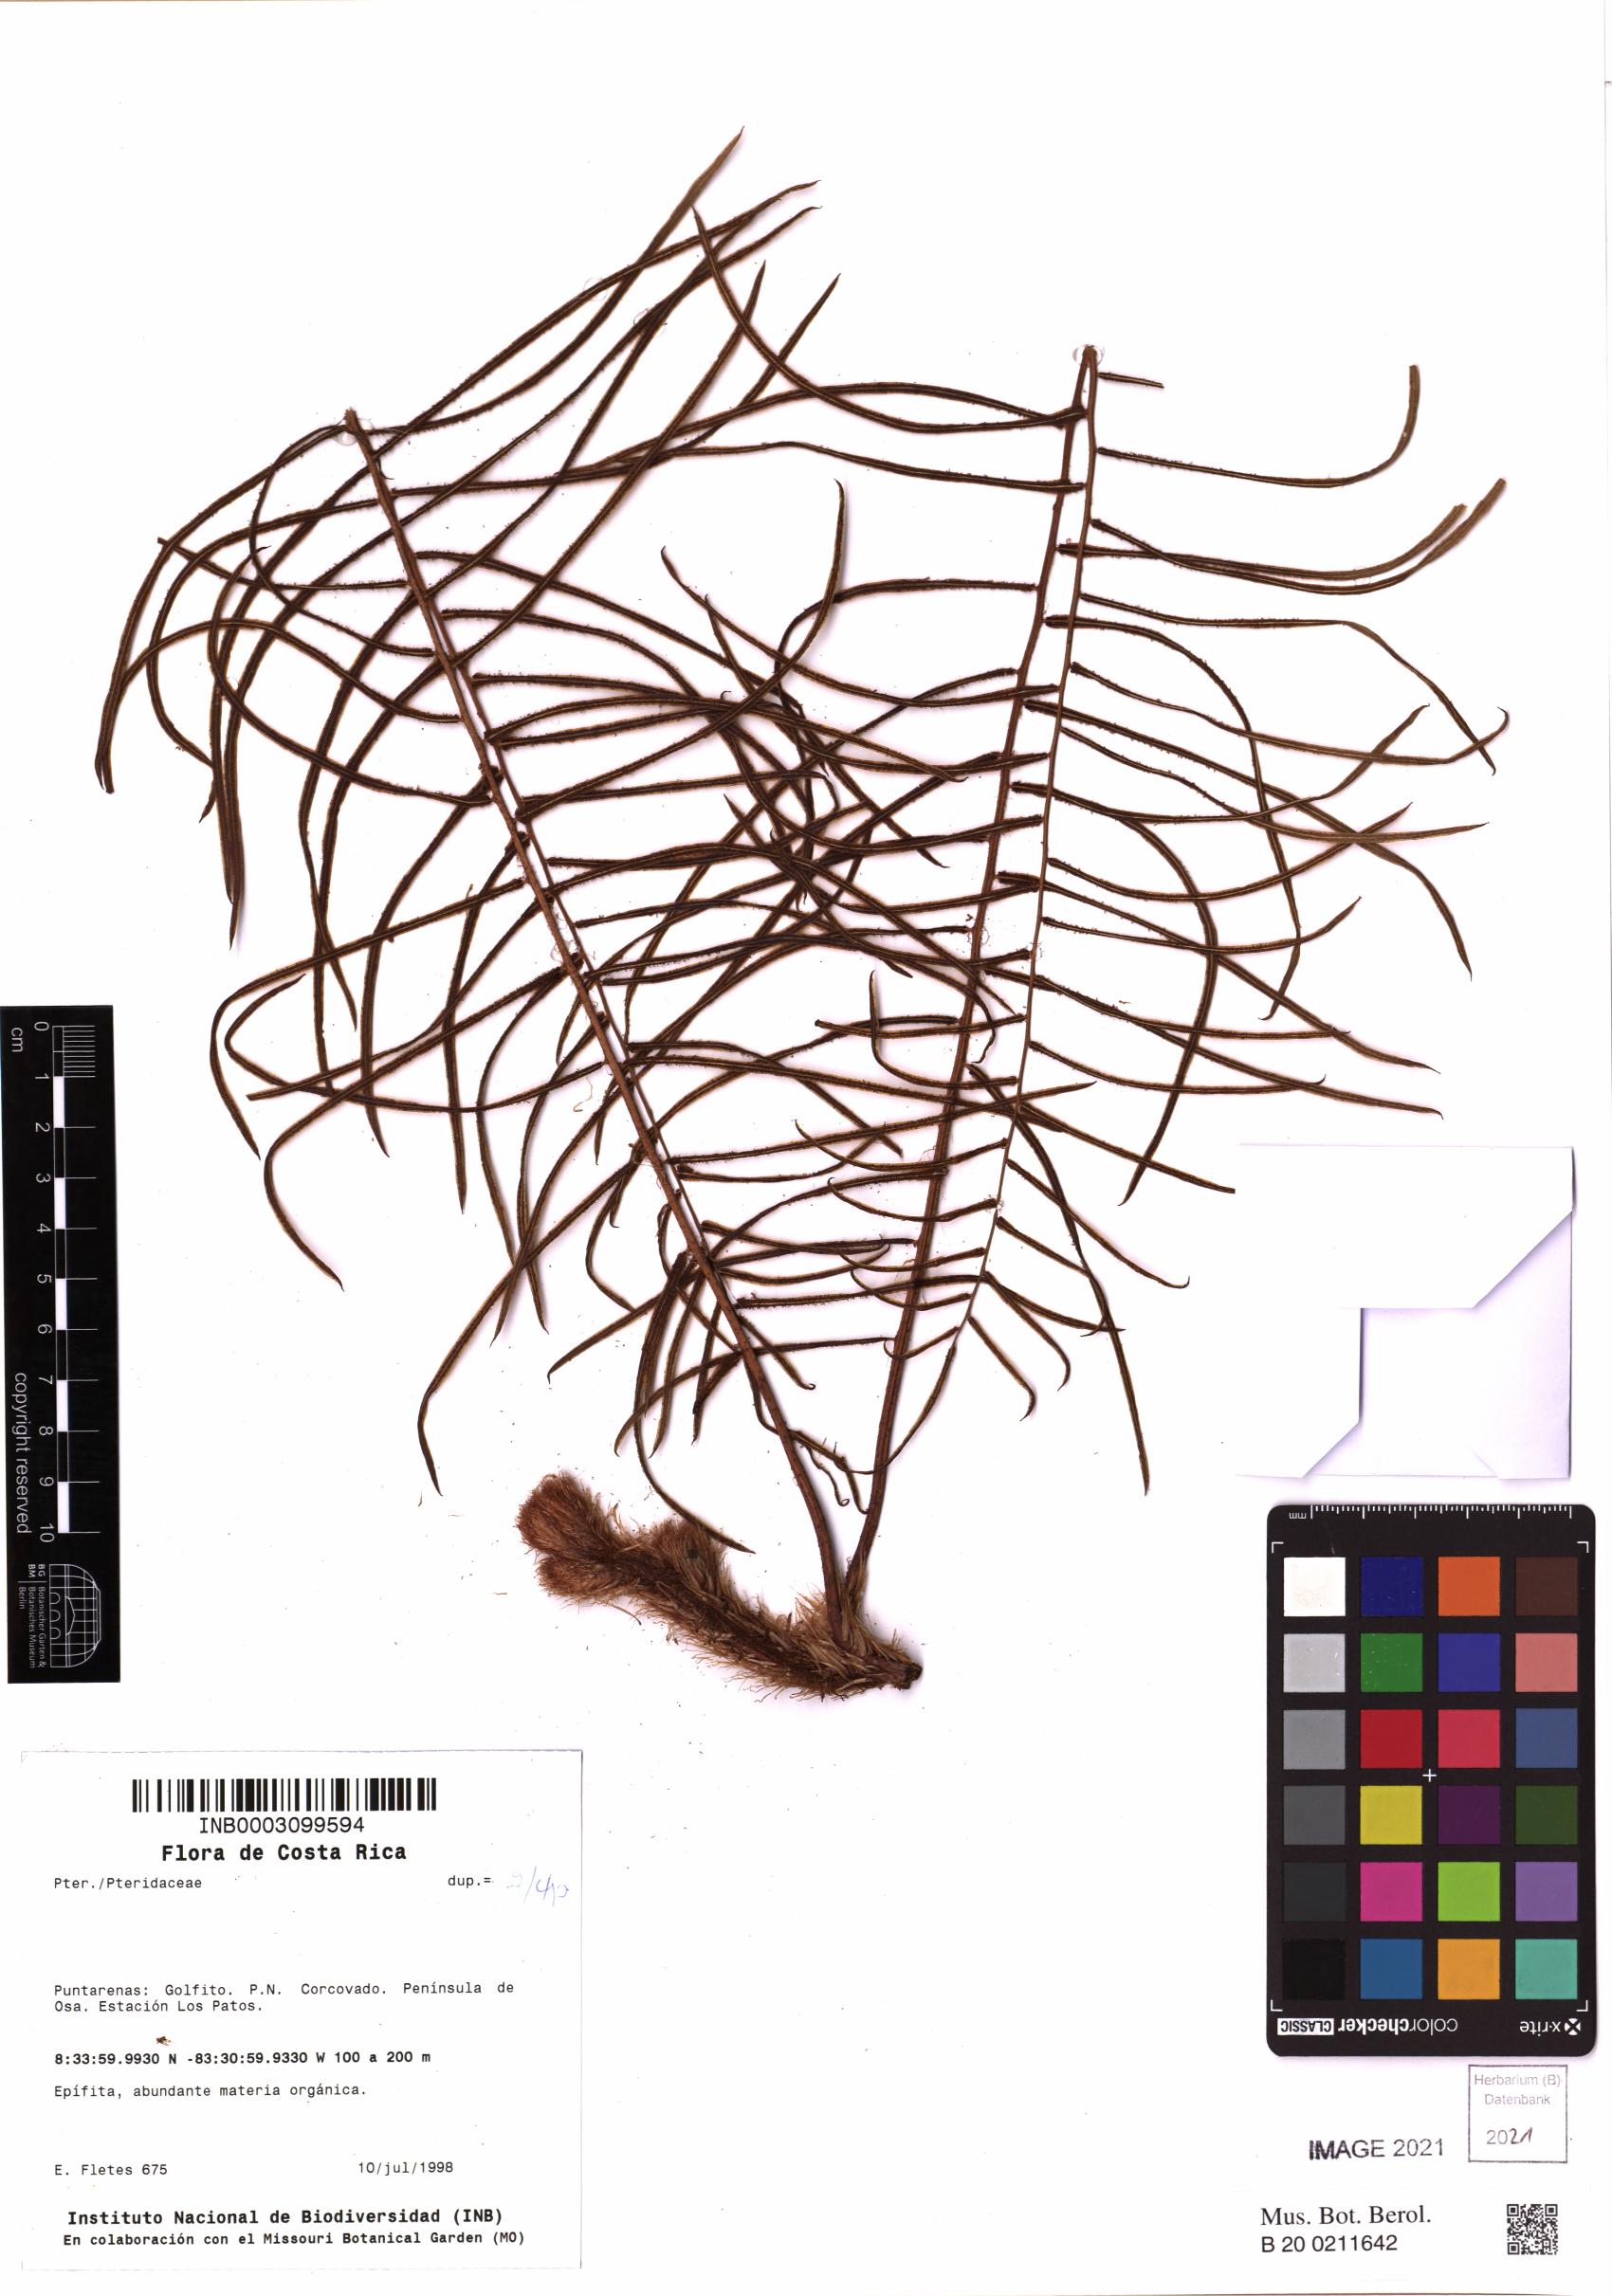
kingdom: Plantae
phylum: Tracheophyta
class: Polypodiopsida
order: Polypodiales
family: Lomariopsidaceae
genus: Lomariopsis
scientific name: Lomariopsis vestita
